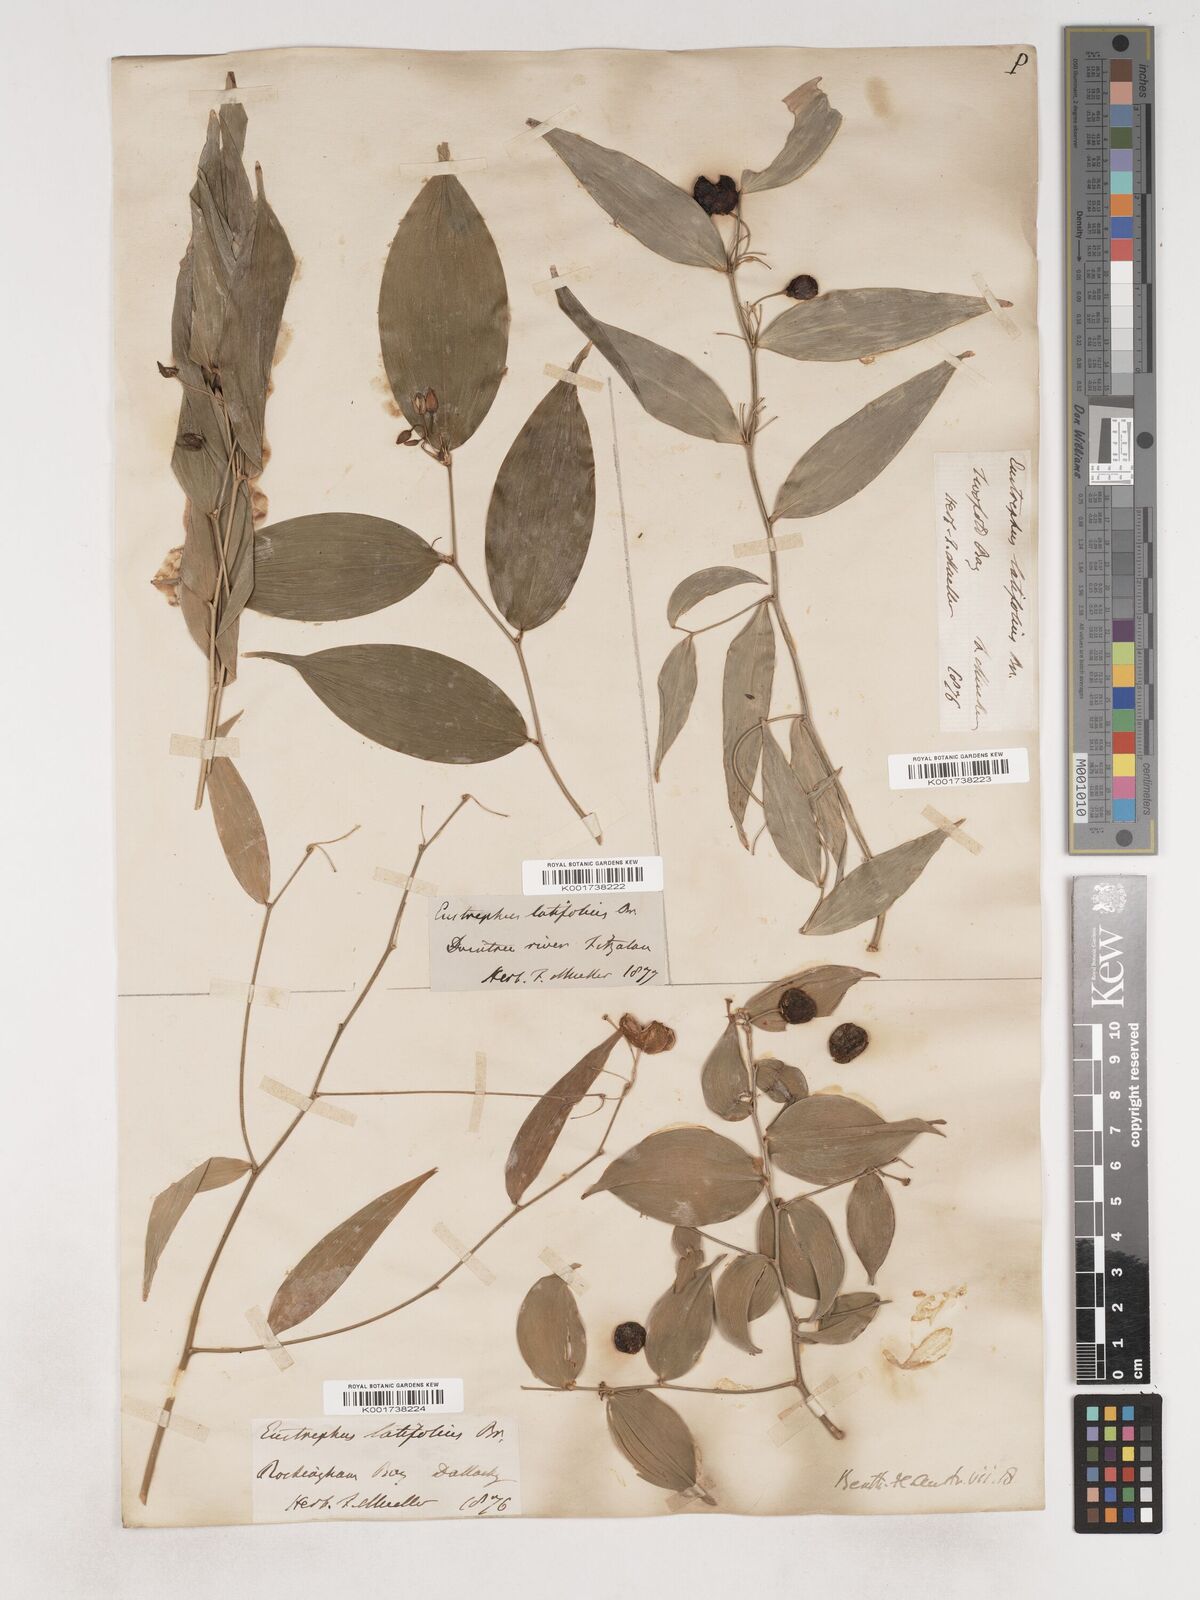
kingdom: Plantae
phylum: Tracheophyta
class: Liliopsida
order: Asparagales
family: Asparagaceae
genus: Eustrephus
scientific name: Eustrephus latifolius
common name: Orangevine
